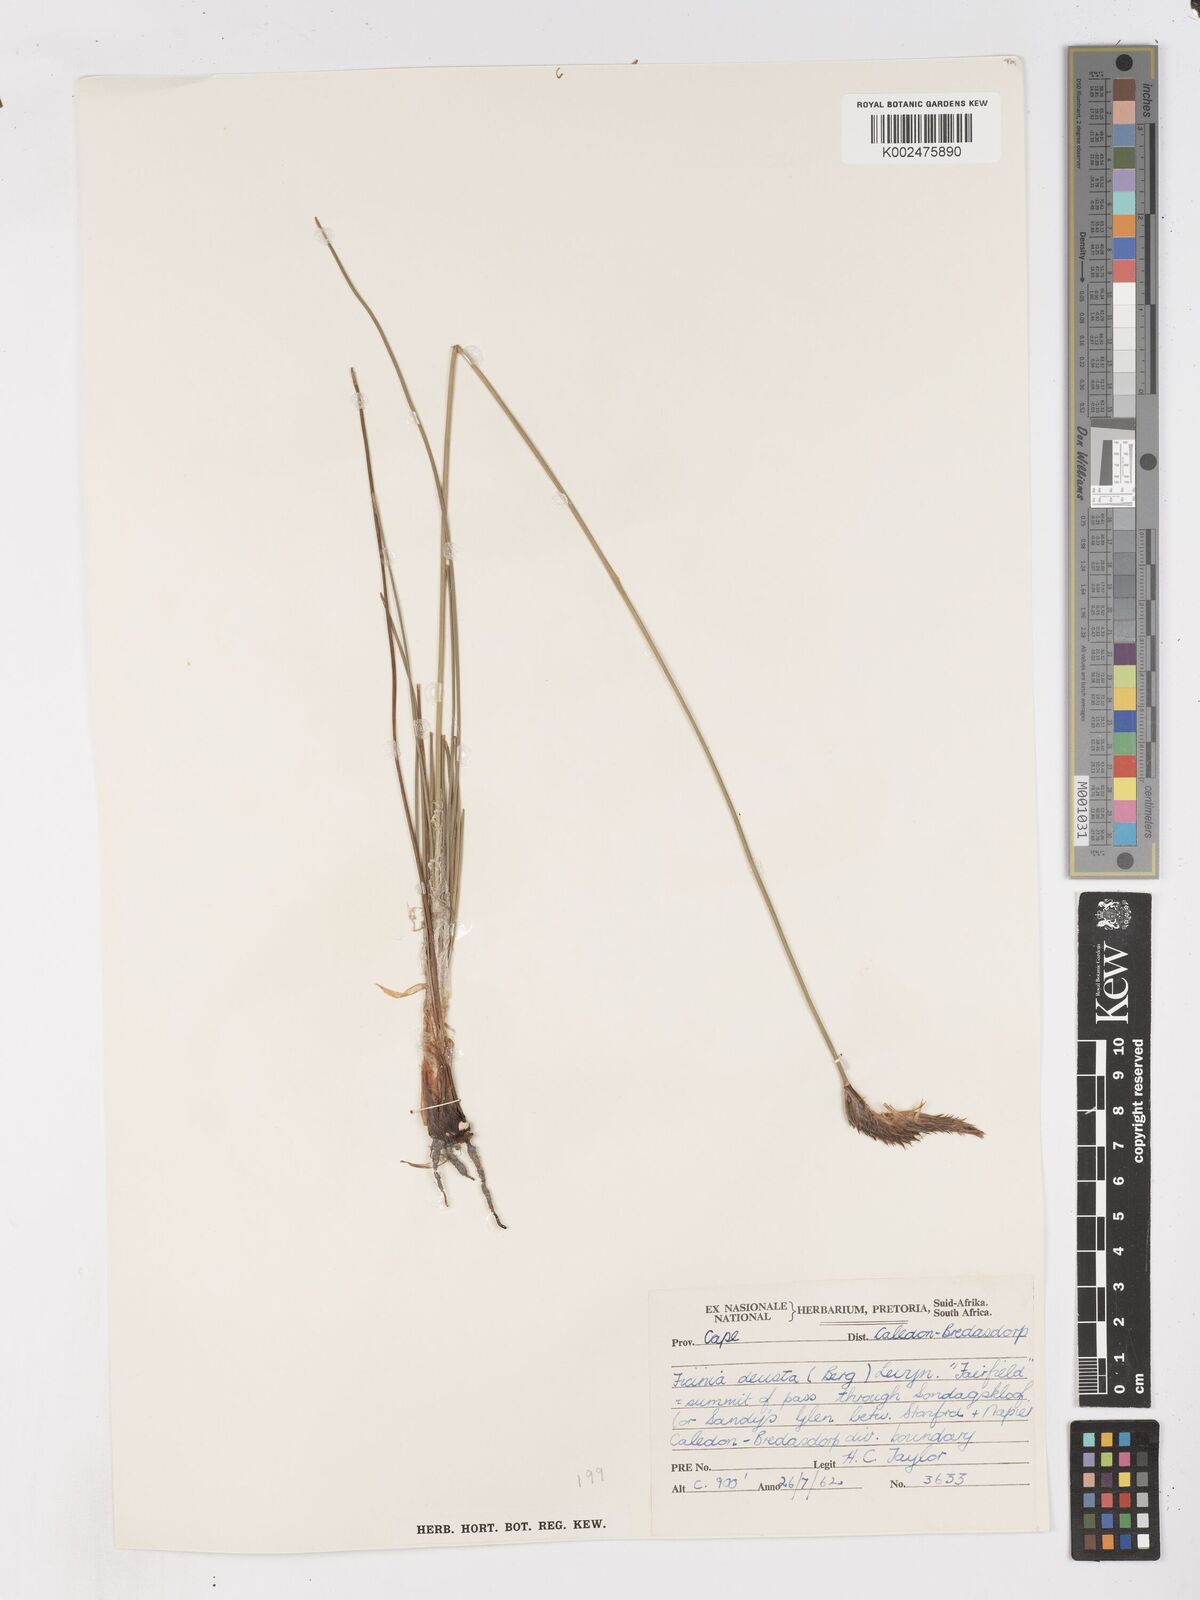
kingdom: Plantae
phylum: Tracheophyta
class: Liliopsida
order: Poales
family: Cyperaceae
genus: Ficinia
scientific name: Ficinia deusta
